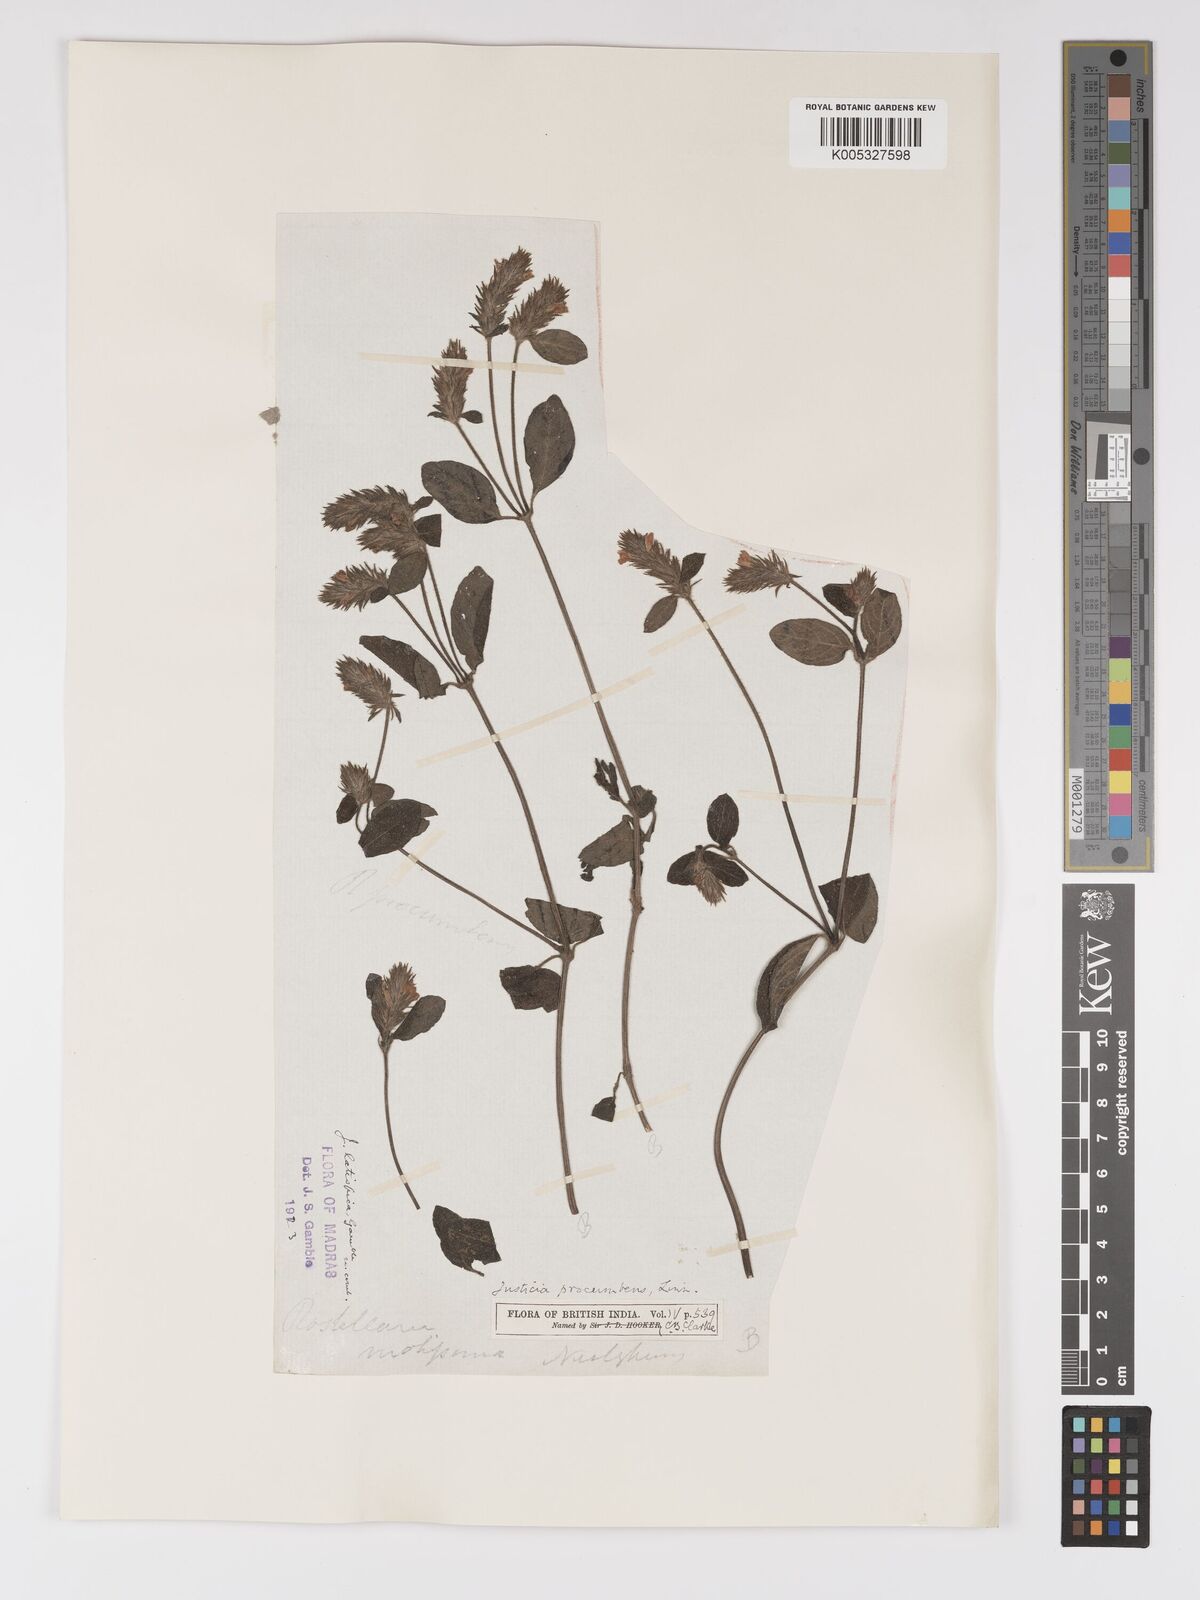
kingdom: Plantae
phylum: Tracheophyta
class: Magnoliopsida
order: Lamiales
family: Acanthaceae
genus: Rostellularia
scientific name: Rostellularia latispica
